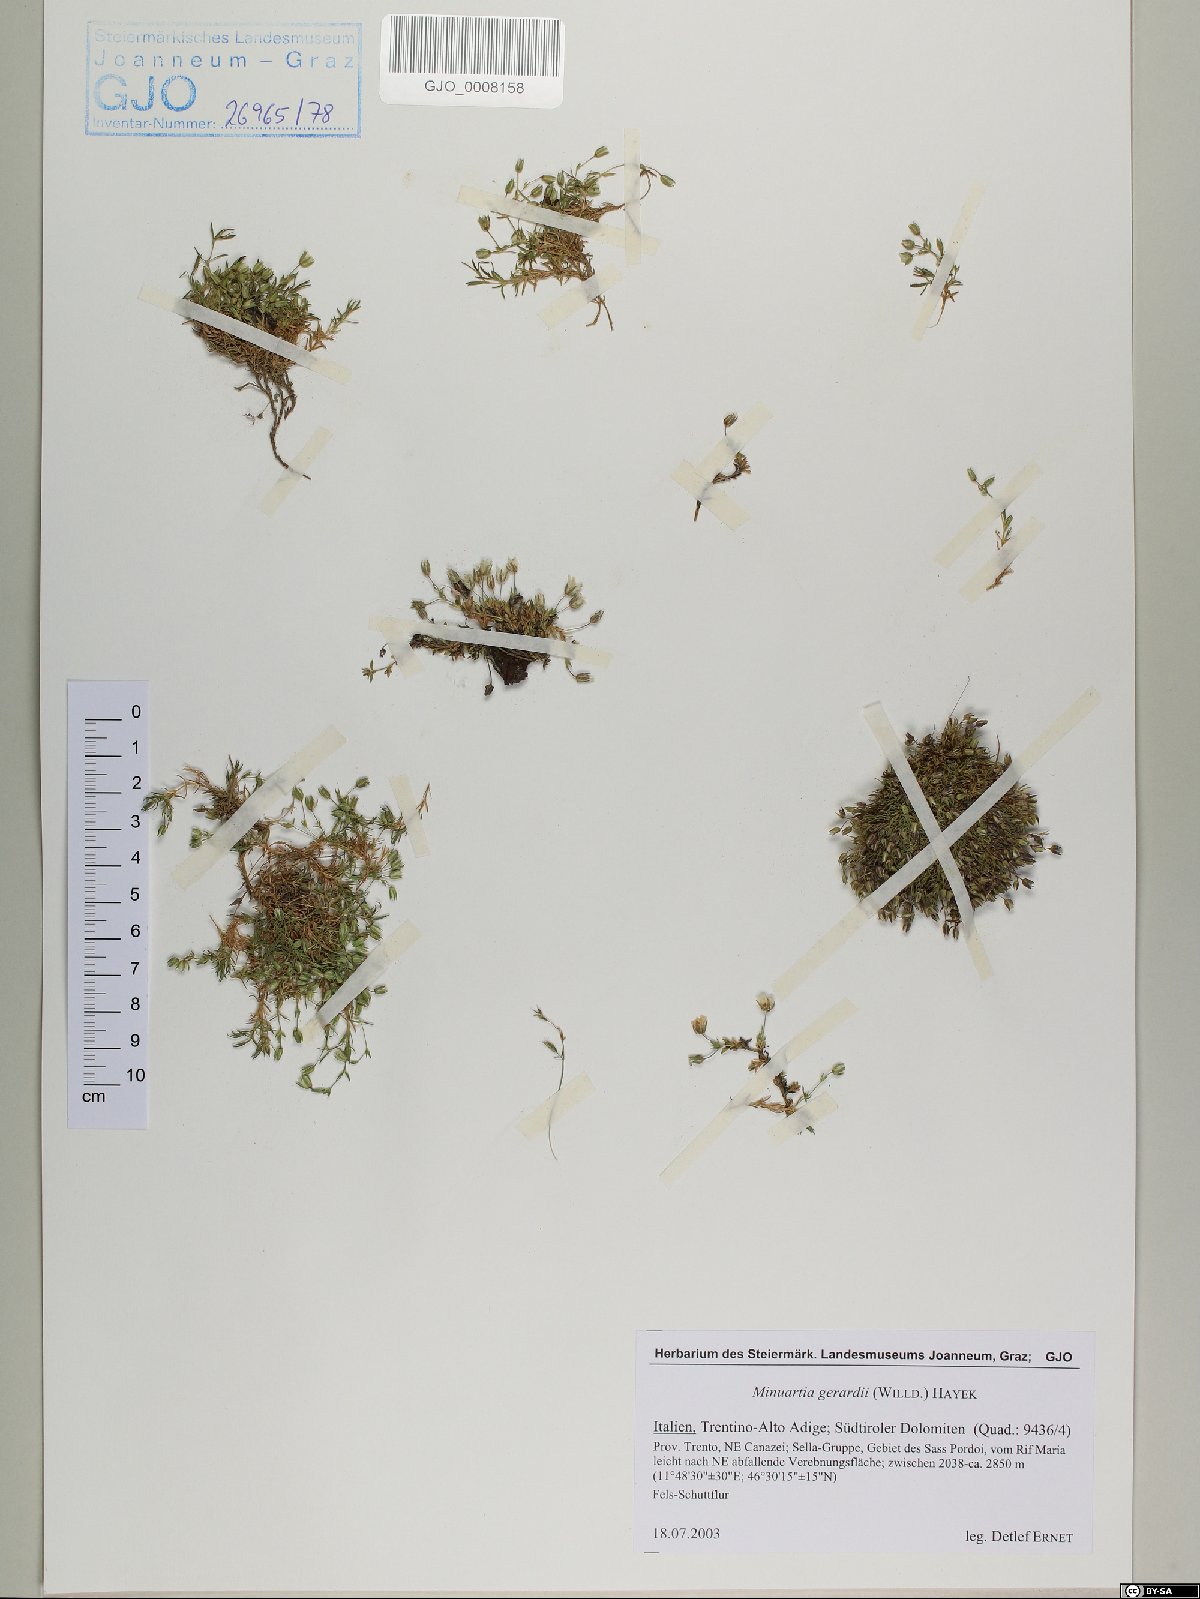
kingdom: Plantae
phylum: Tracheophyta
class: Magnoliopsida
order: Caryophyllales
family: Caryophyllaceae
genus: Sabulina
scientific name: Sabulina verna
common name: Spring sandwort
